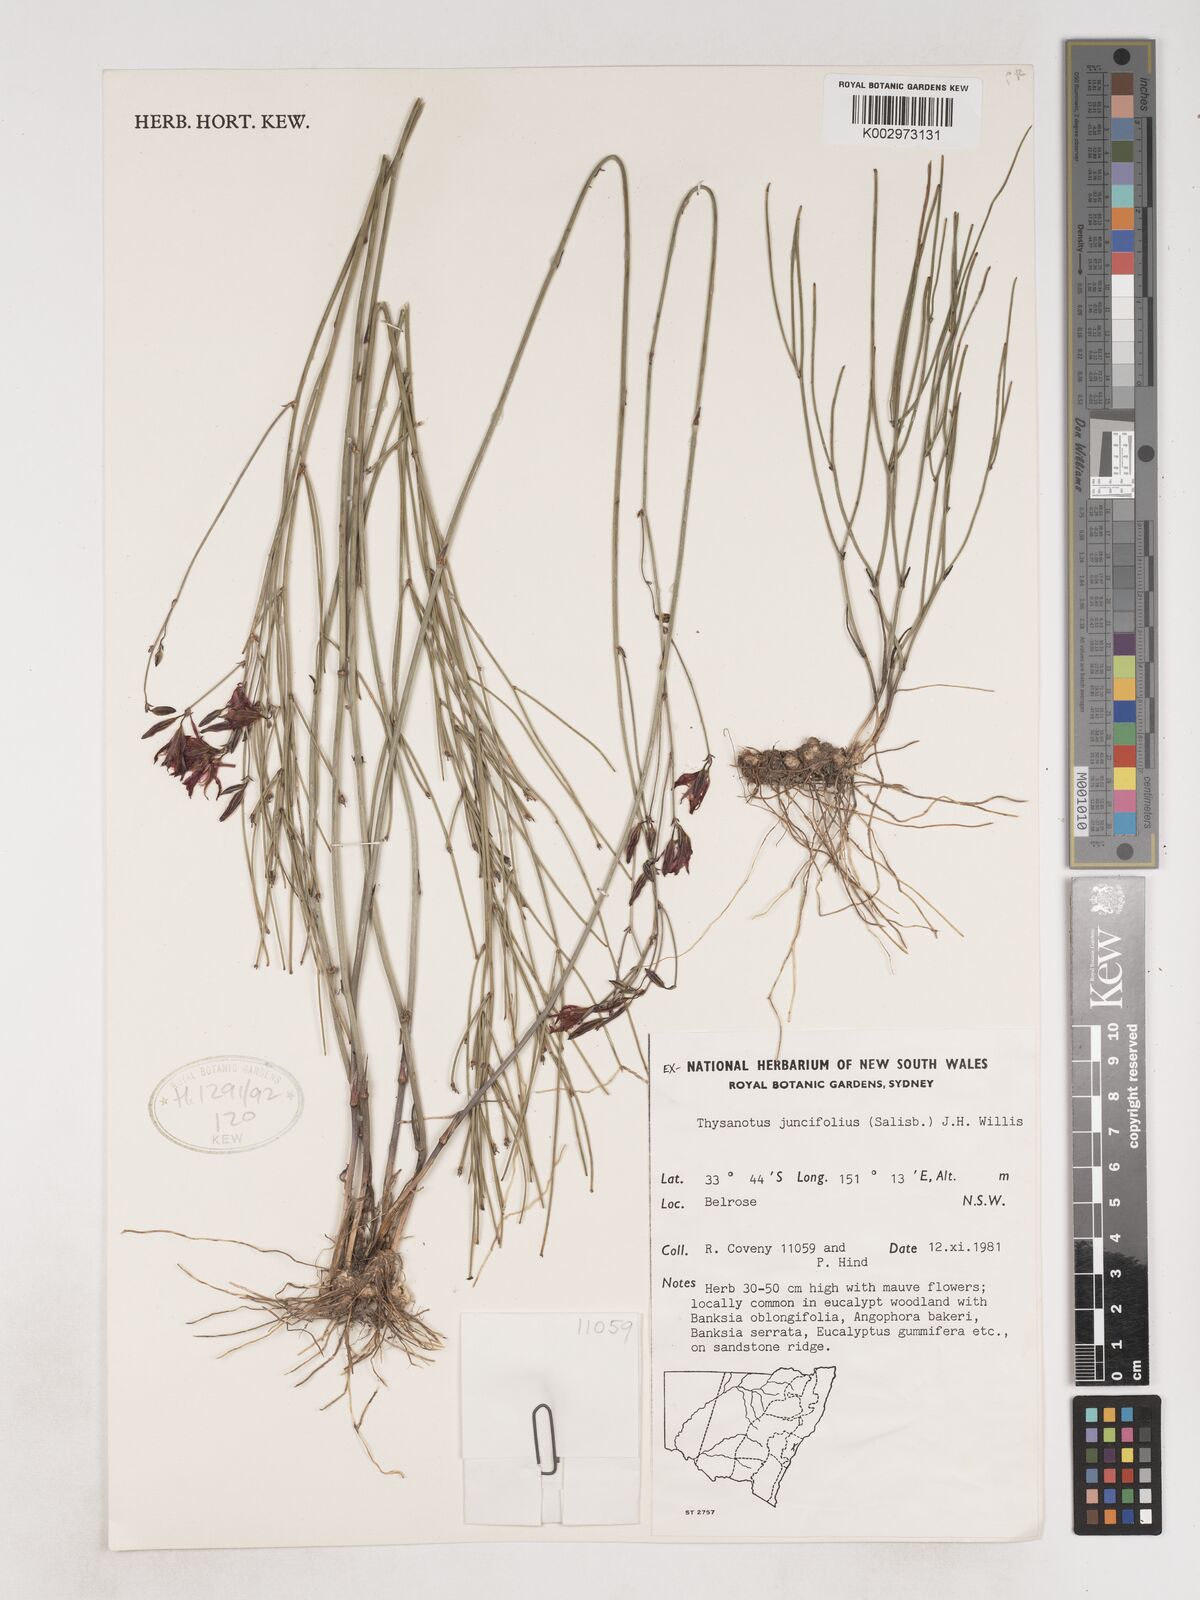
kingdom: Plantae
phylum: Tracheophyta
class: Liliopsida
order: Asparagales
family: Asparagaceae
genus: Thysanotus
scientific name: Thysanotus juncifolius
